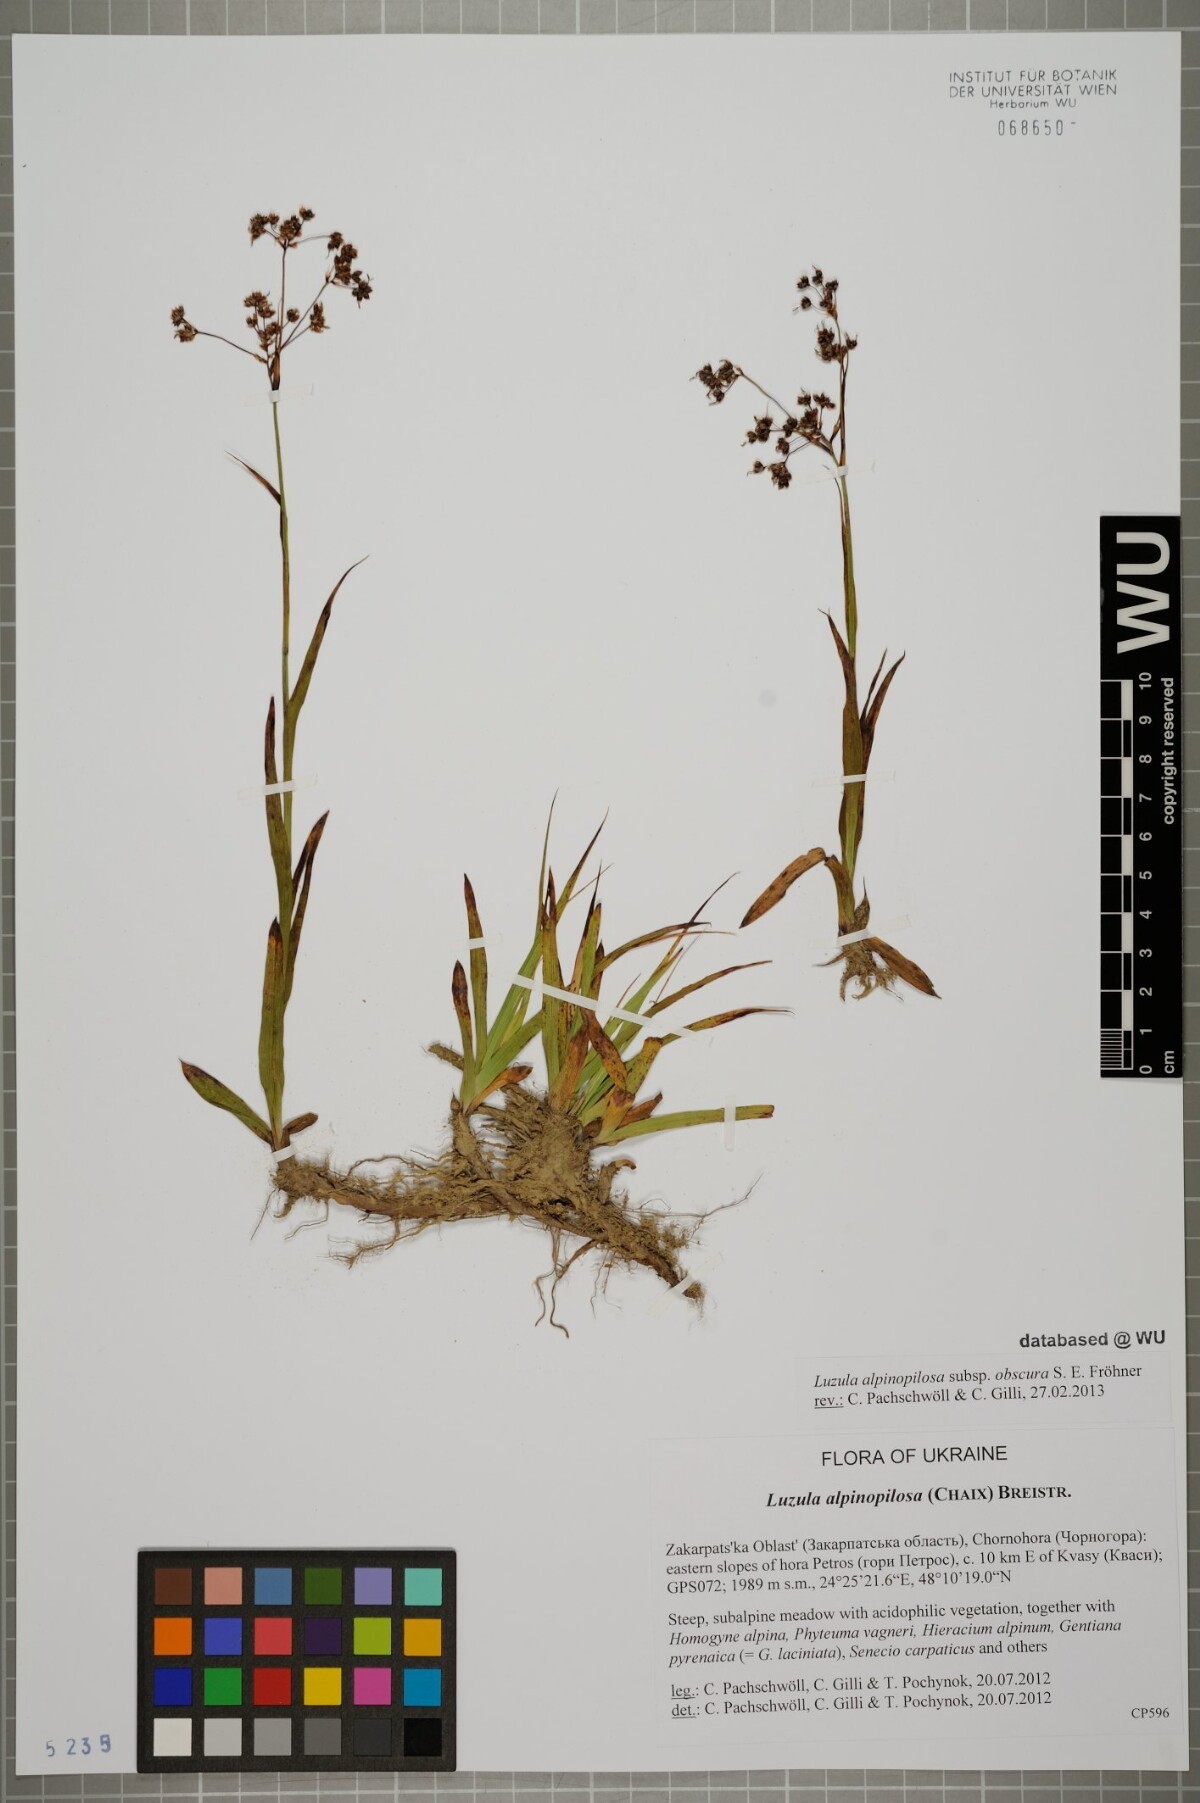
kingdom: Plantae
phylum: Tracheophyta
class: Liliopsida
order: Poales
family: Juncaceae
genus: Luzula
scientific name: Luzula alpinopilosa
